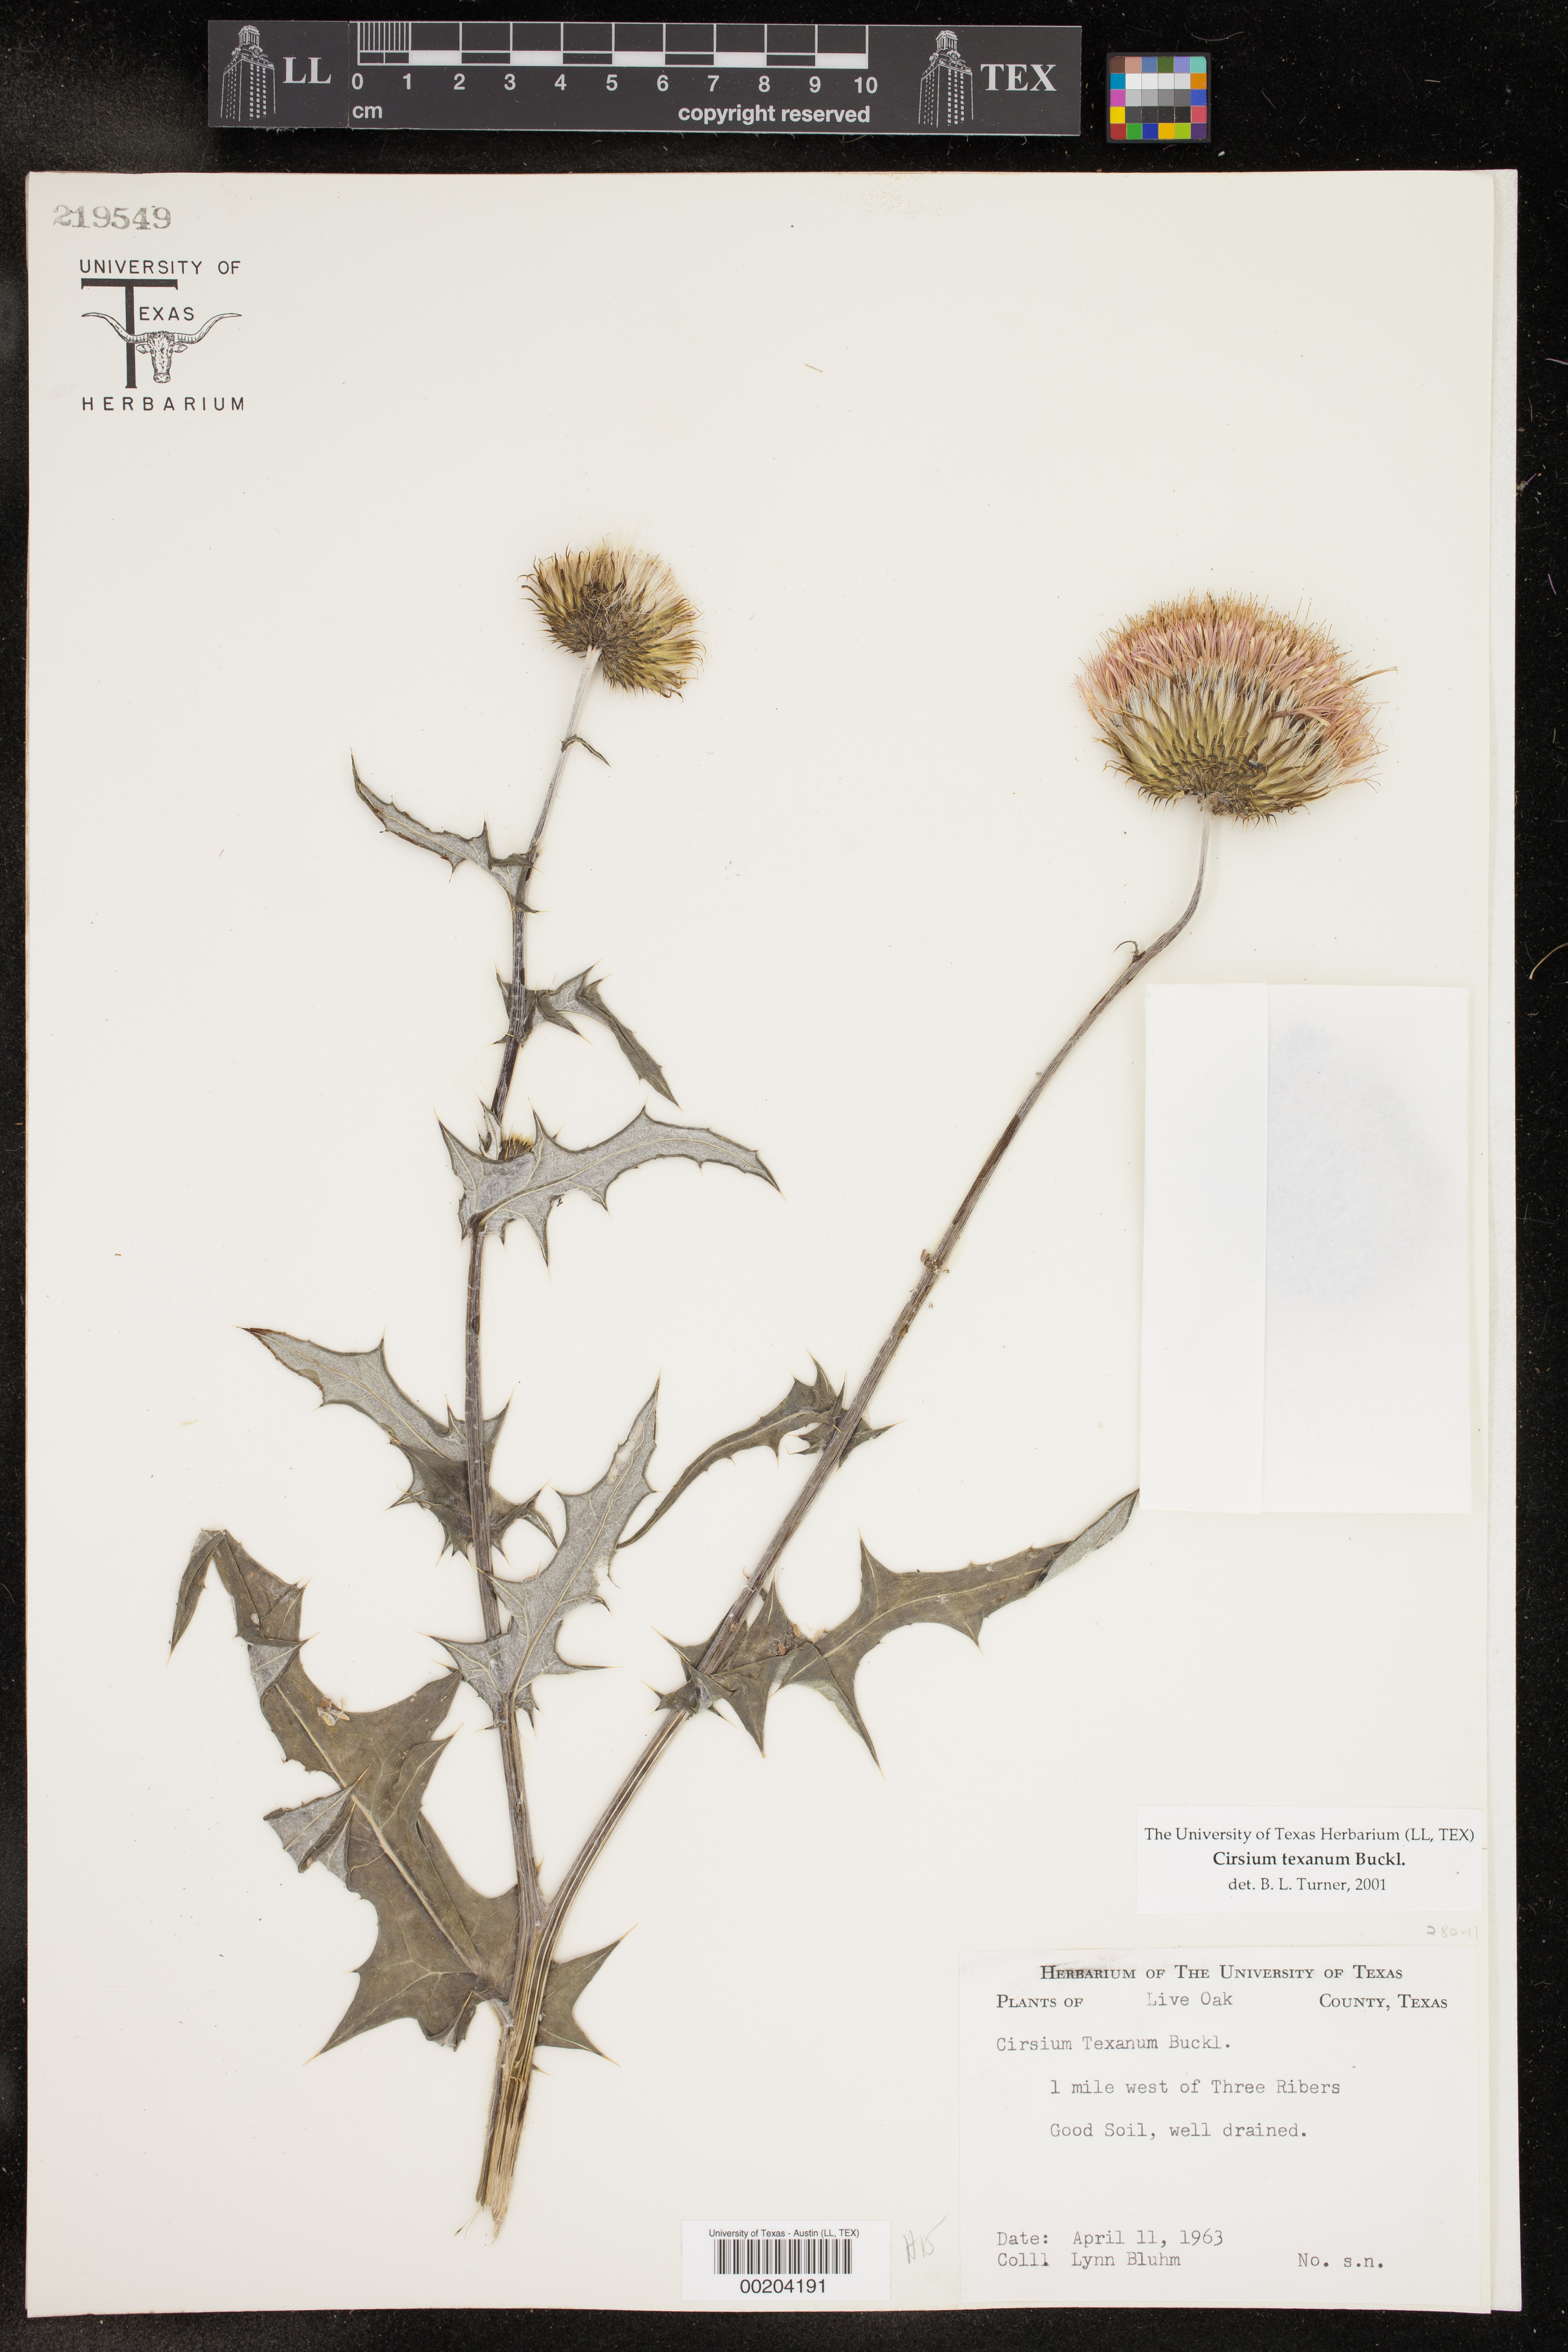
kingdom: Plantae
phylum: Tracheophyta
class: Magnoliopsida
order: Asterales
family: Asteraceae
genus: Cirsium
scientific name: Cirsium texanum
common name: Texas purple thistle
